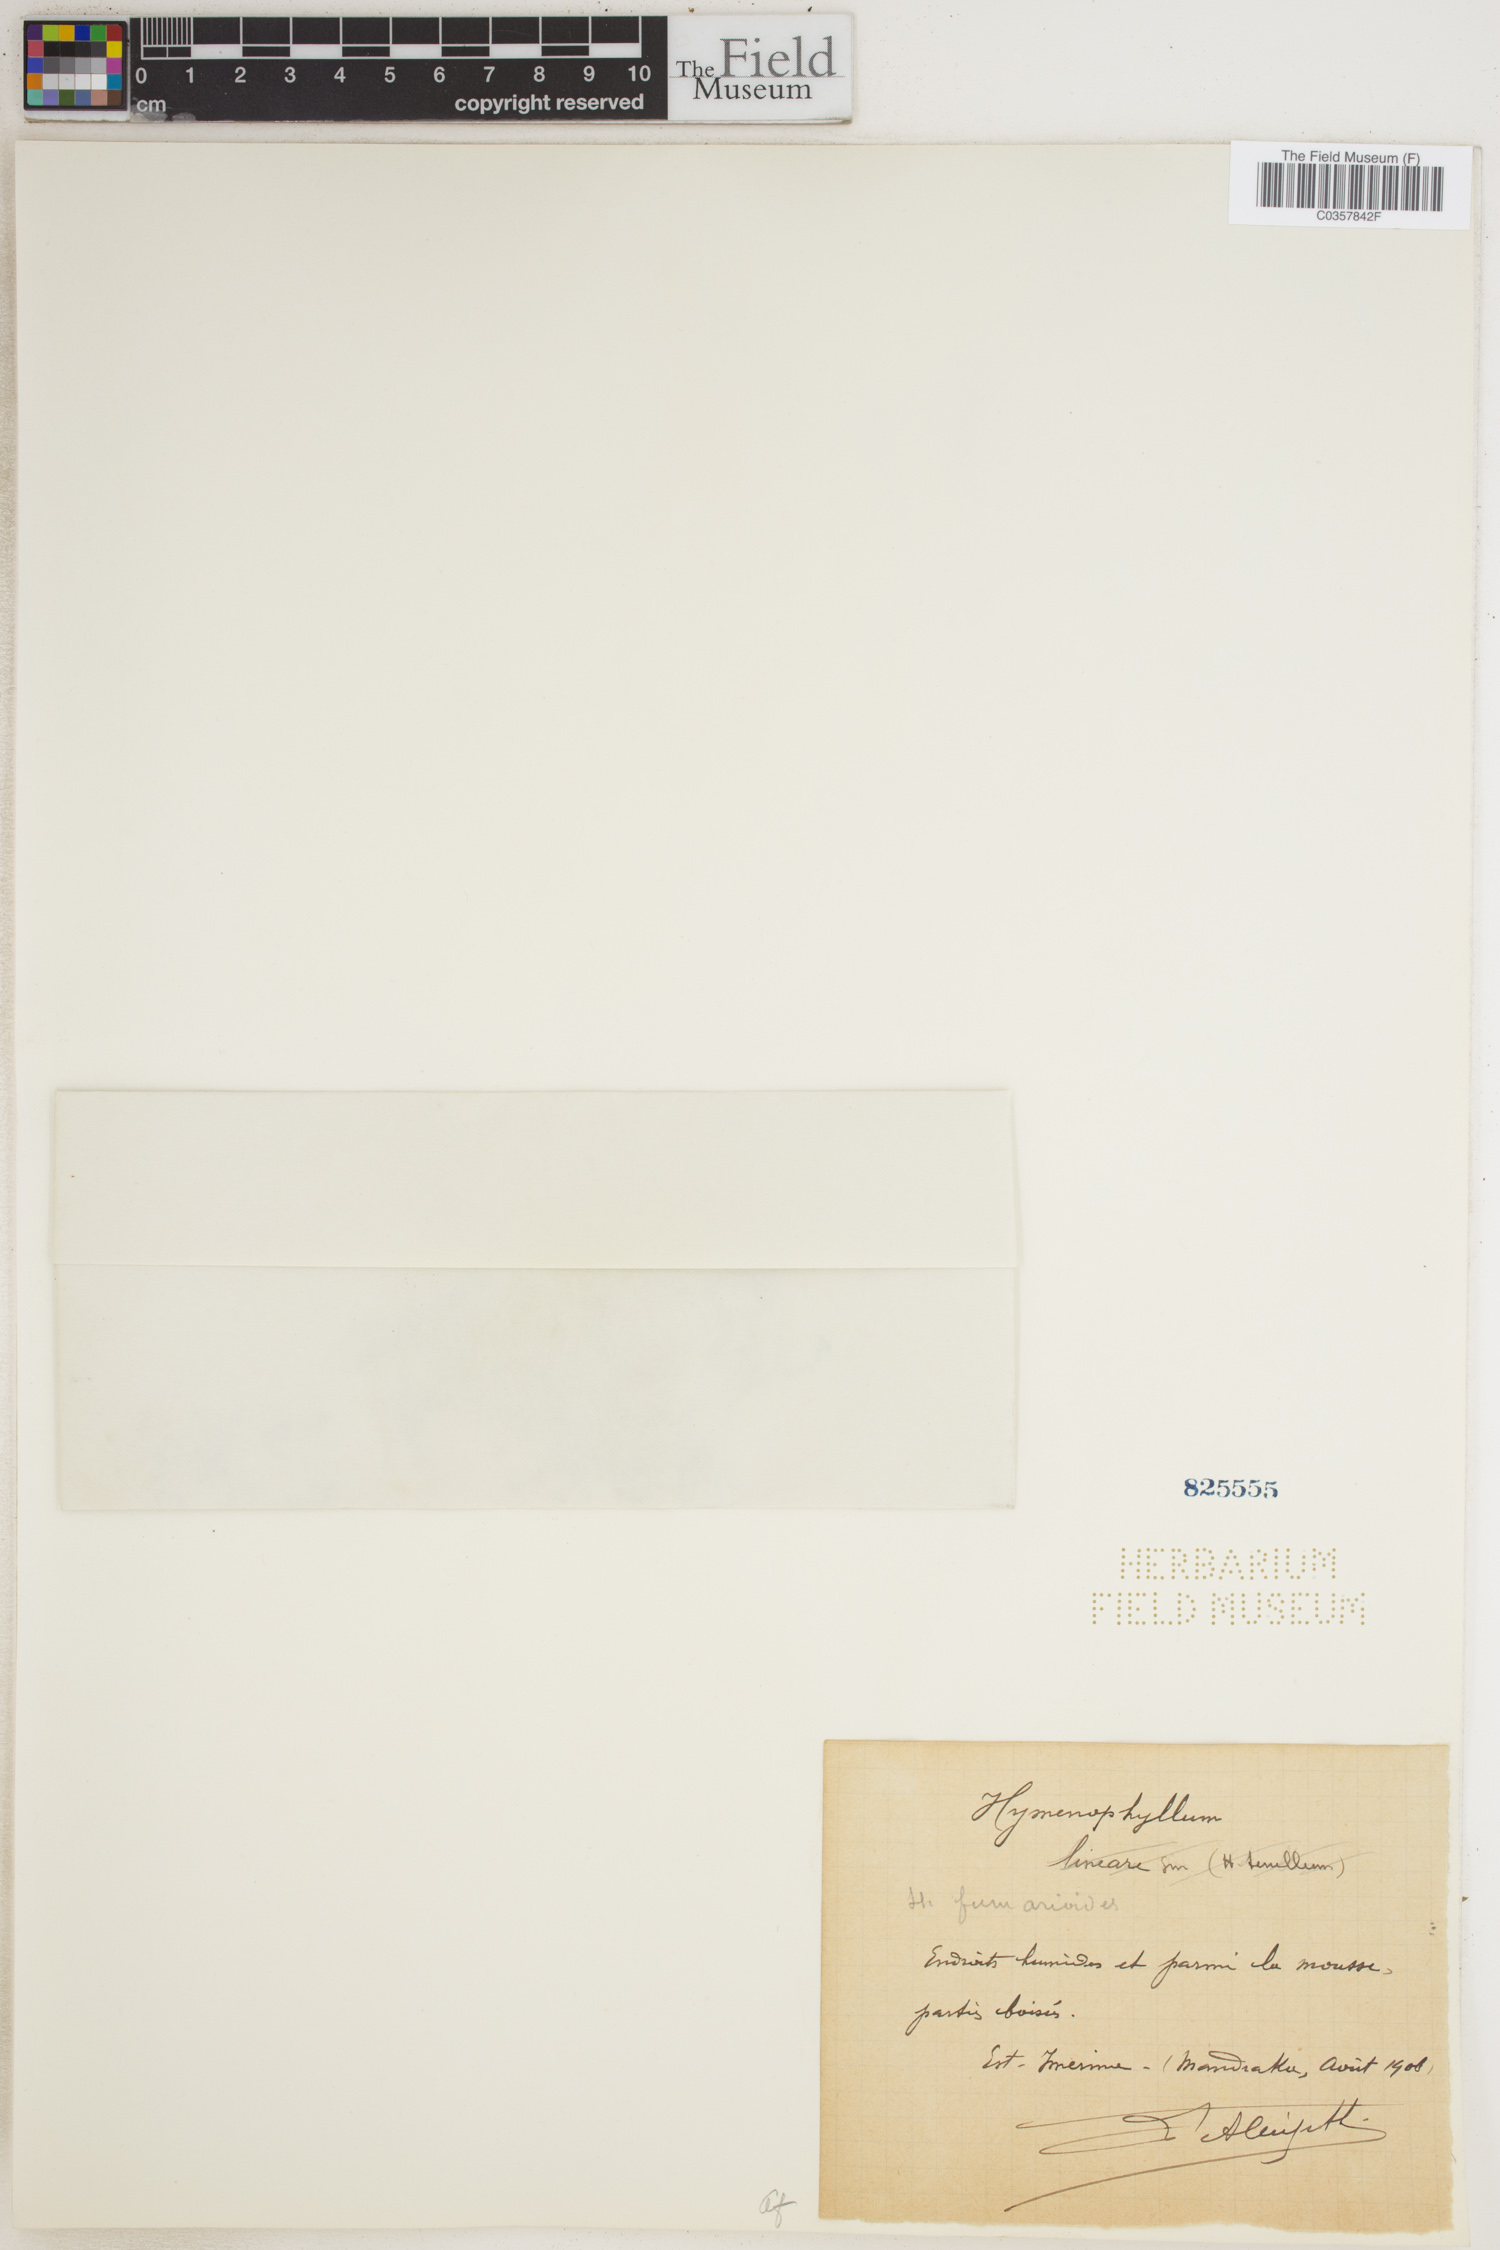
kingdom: Plantae
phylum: Tracheophyta
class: Polypodiopsida
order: Hymenophyllales
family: Hymenophyllaceae
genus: Hymenophyllum
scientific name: Hymenophyllum lineare
